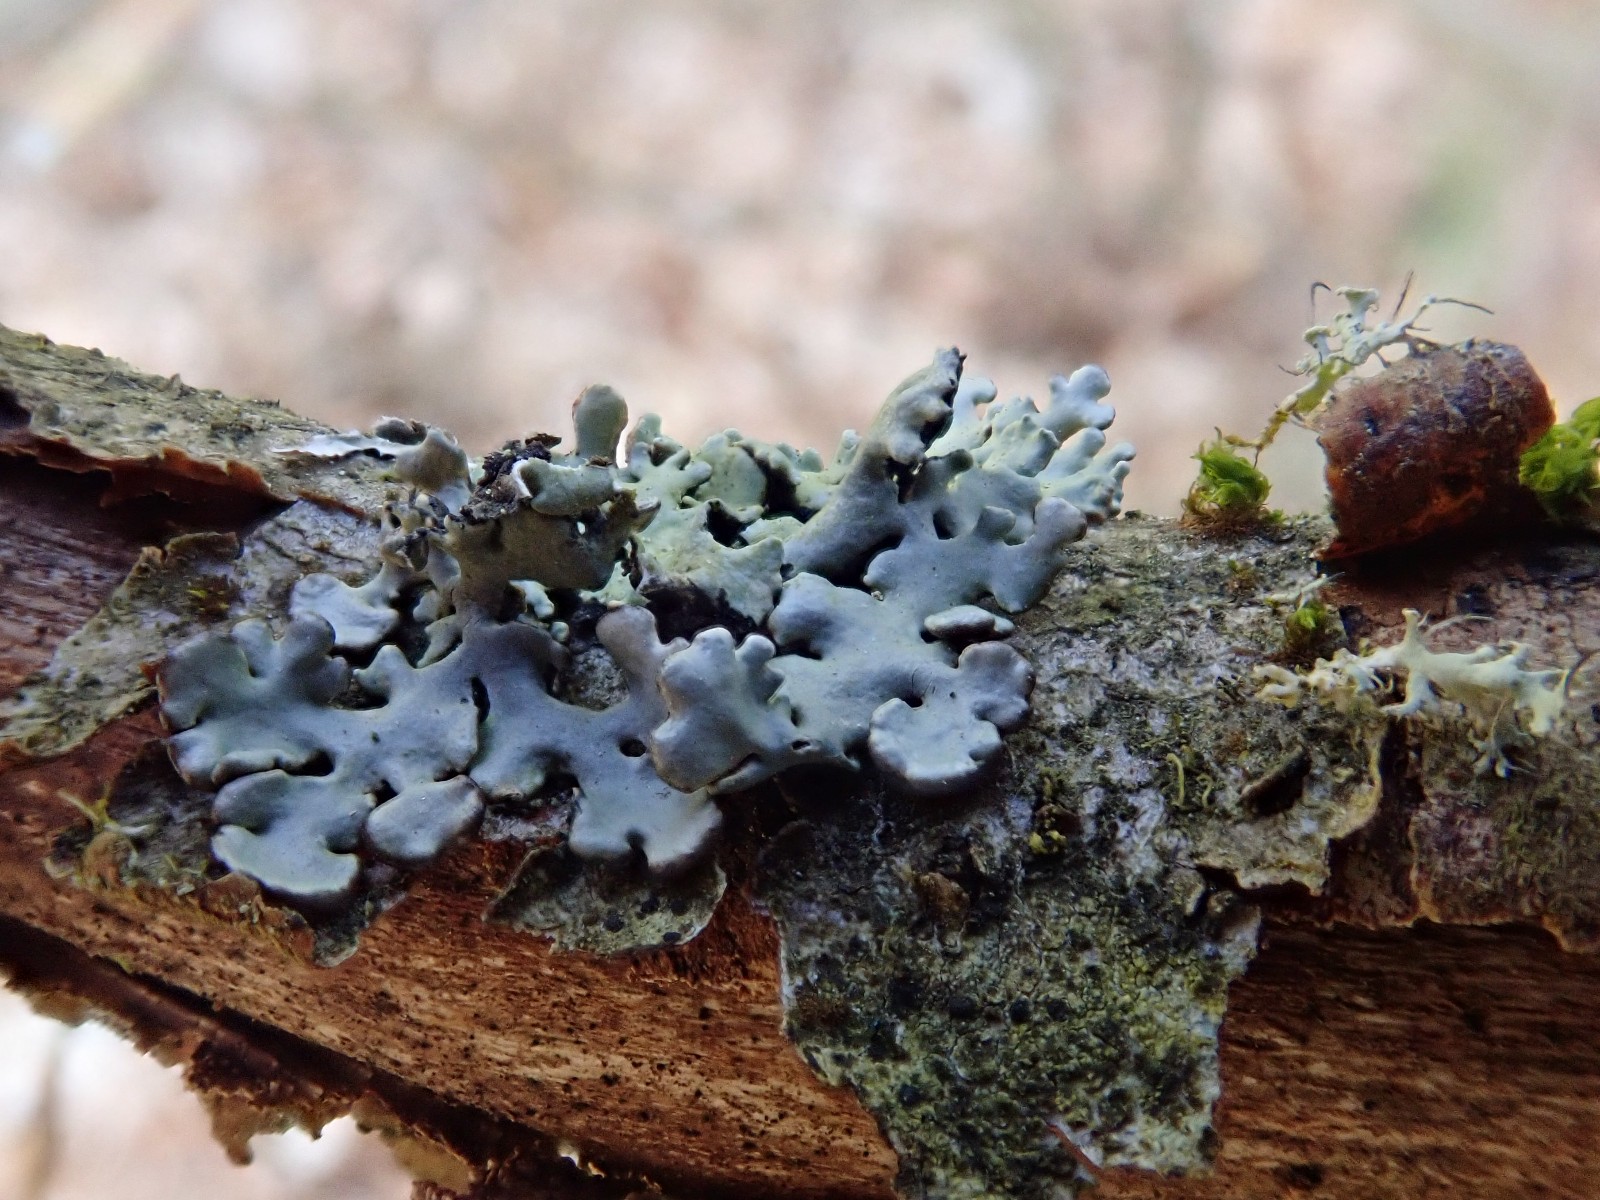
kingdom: Fungi
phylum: Ascomycota
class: Lecanoromycetes
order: Lecanorales
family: Parmeliaceae
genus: Hypogymnia
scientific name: Hypogymnia physodes
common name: almindelig kvistlav
